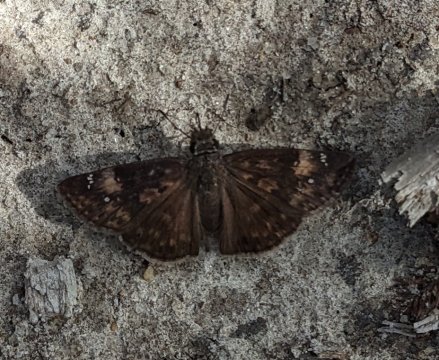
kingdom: Animalia
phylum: Arthropoda
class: Insecta
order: Lepidoptera
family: Hesperiidae
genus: Erynnis
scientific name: Erynnis zarucco
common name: Zarucco Duskywing
